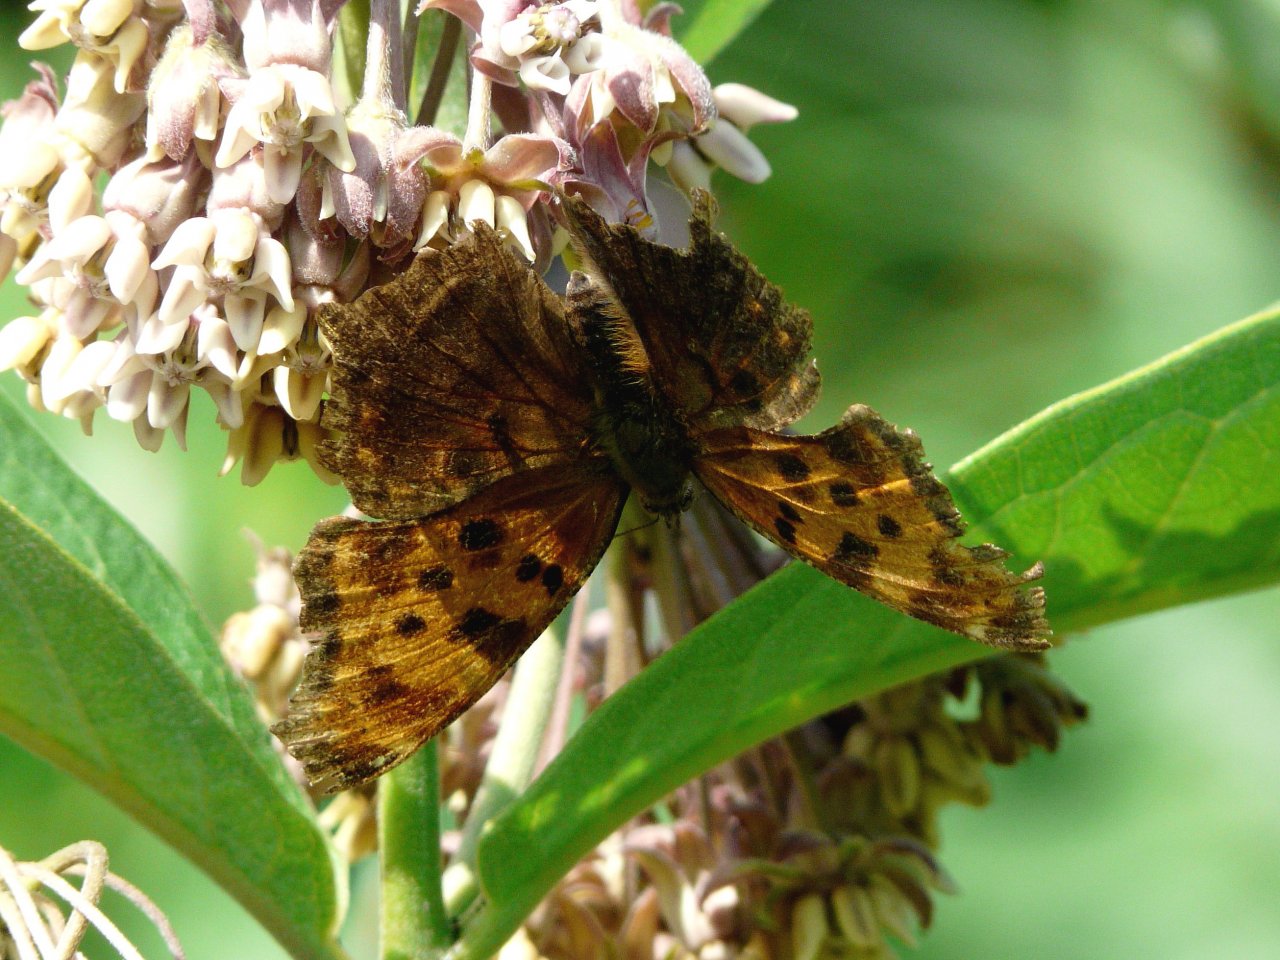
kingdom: Animalia
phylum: Arthropoda
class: Insecta
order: Lepidoptera
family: Nymphalidae
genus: Polygonia
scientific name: Polygonia comma
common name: Eastern Comma
